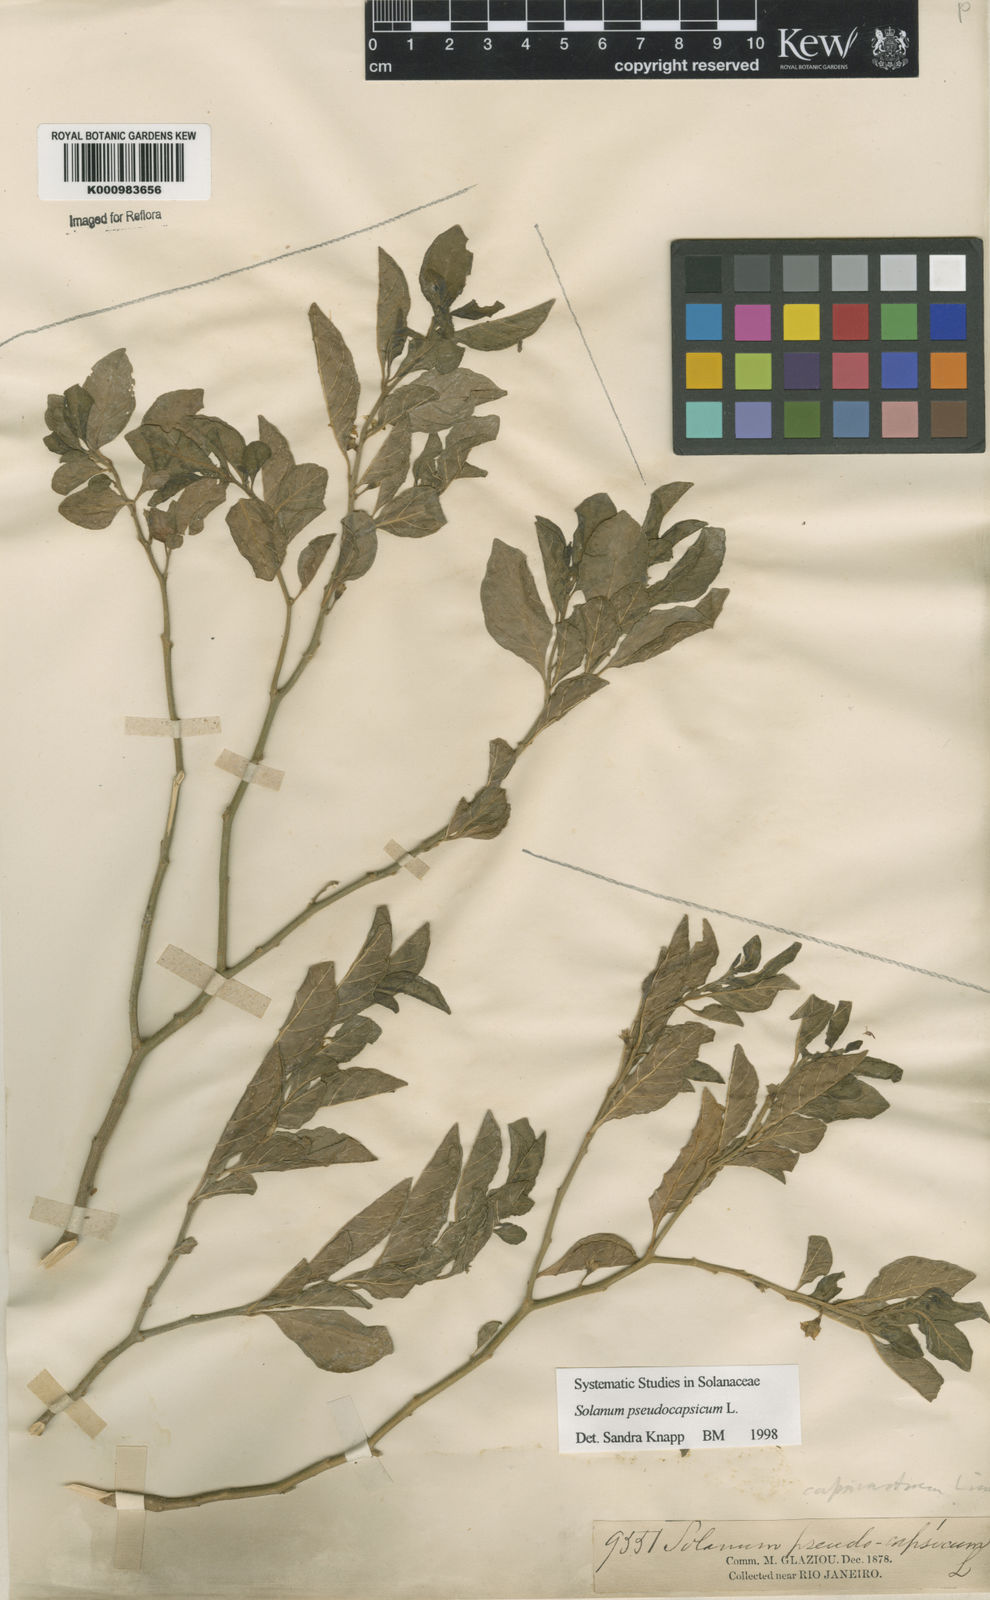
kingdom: Plantae
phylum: Tracheophyta
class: Magnoliopsida
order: Solanales
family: Solanaceae
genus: Solanum
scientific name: Solanum pseudocapsicum
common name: Jerusalem cherry
